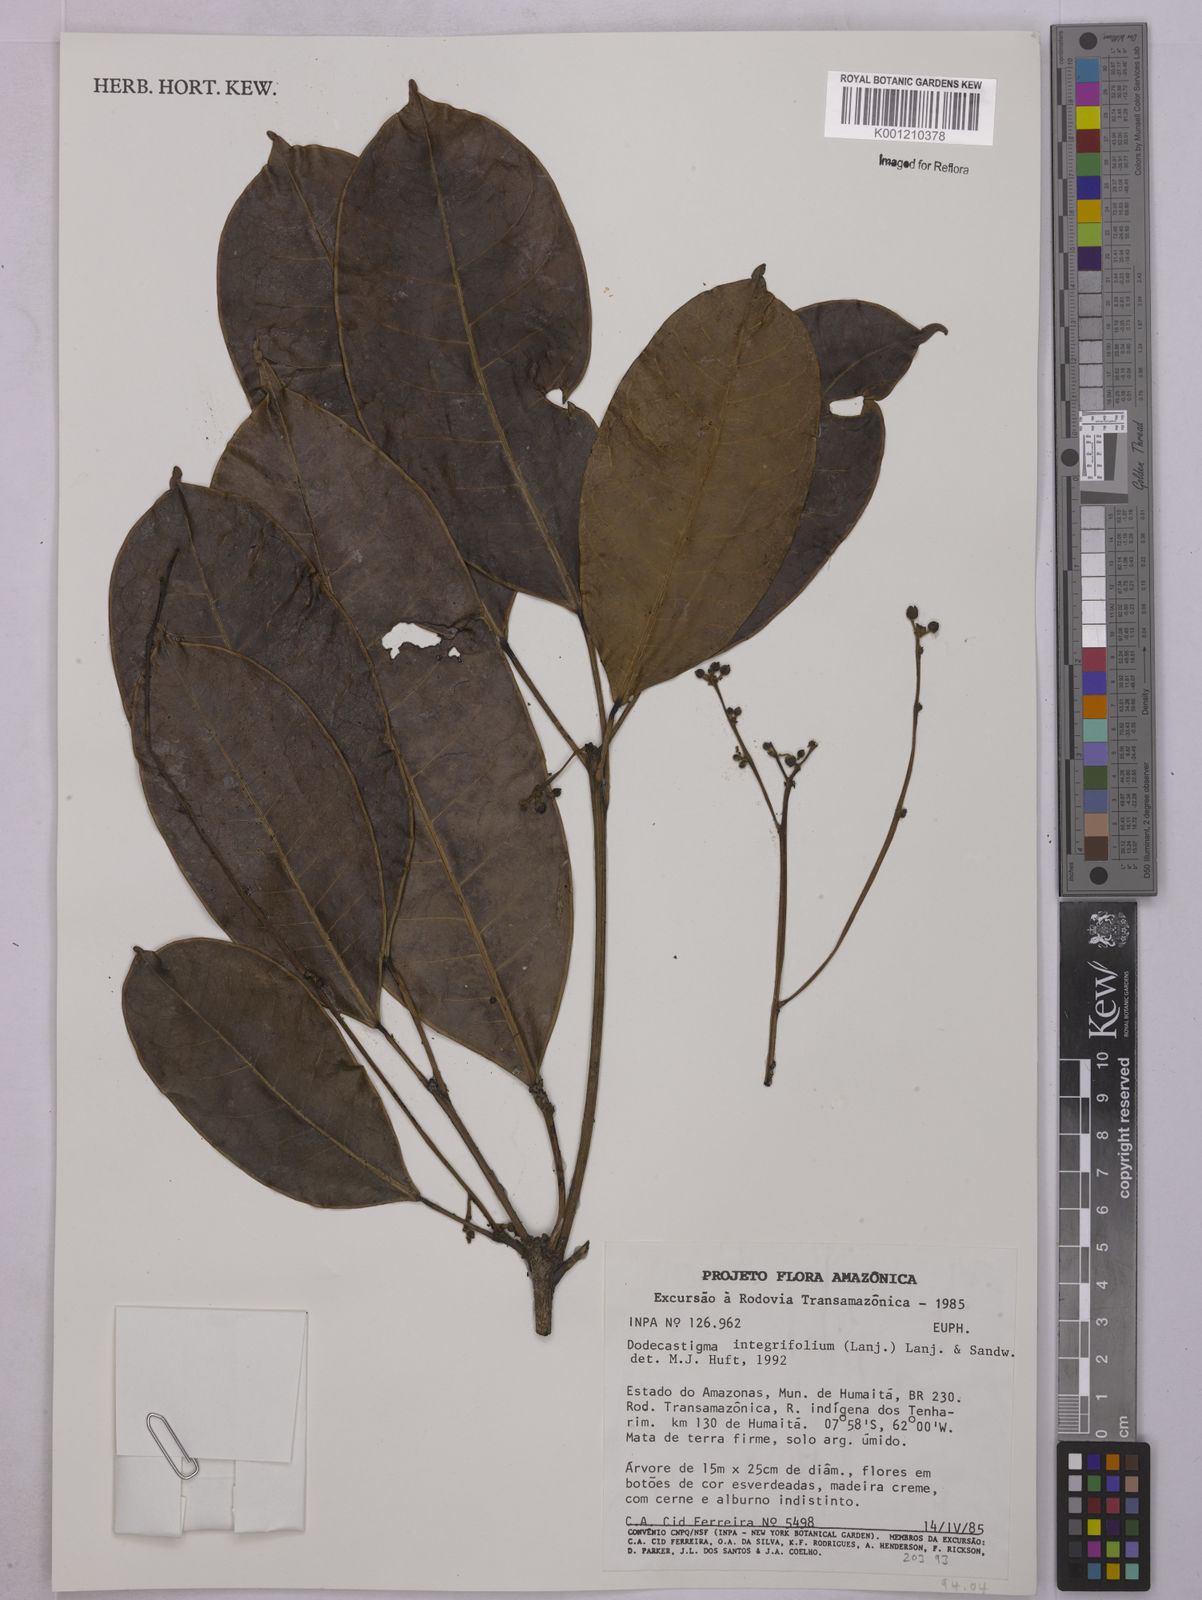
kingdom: Plantae
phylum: Tracheophyta
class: Magnoliopsida
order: Malpighiales
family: Euphorbiaceae
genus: Dodecastigma
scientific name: Dodecastigma integrifolium
